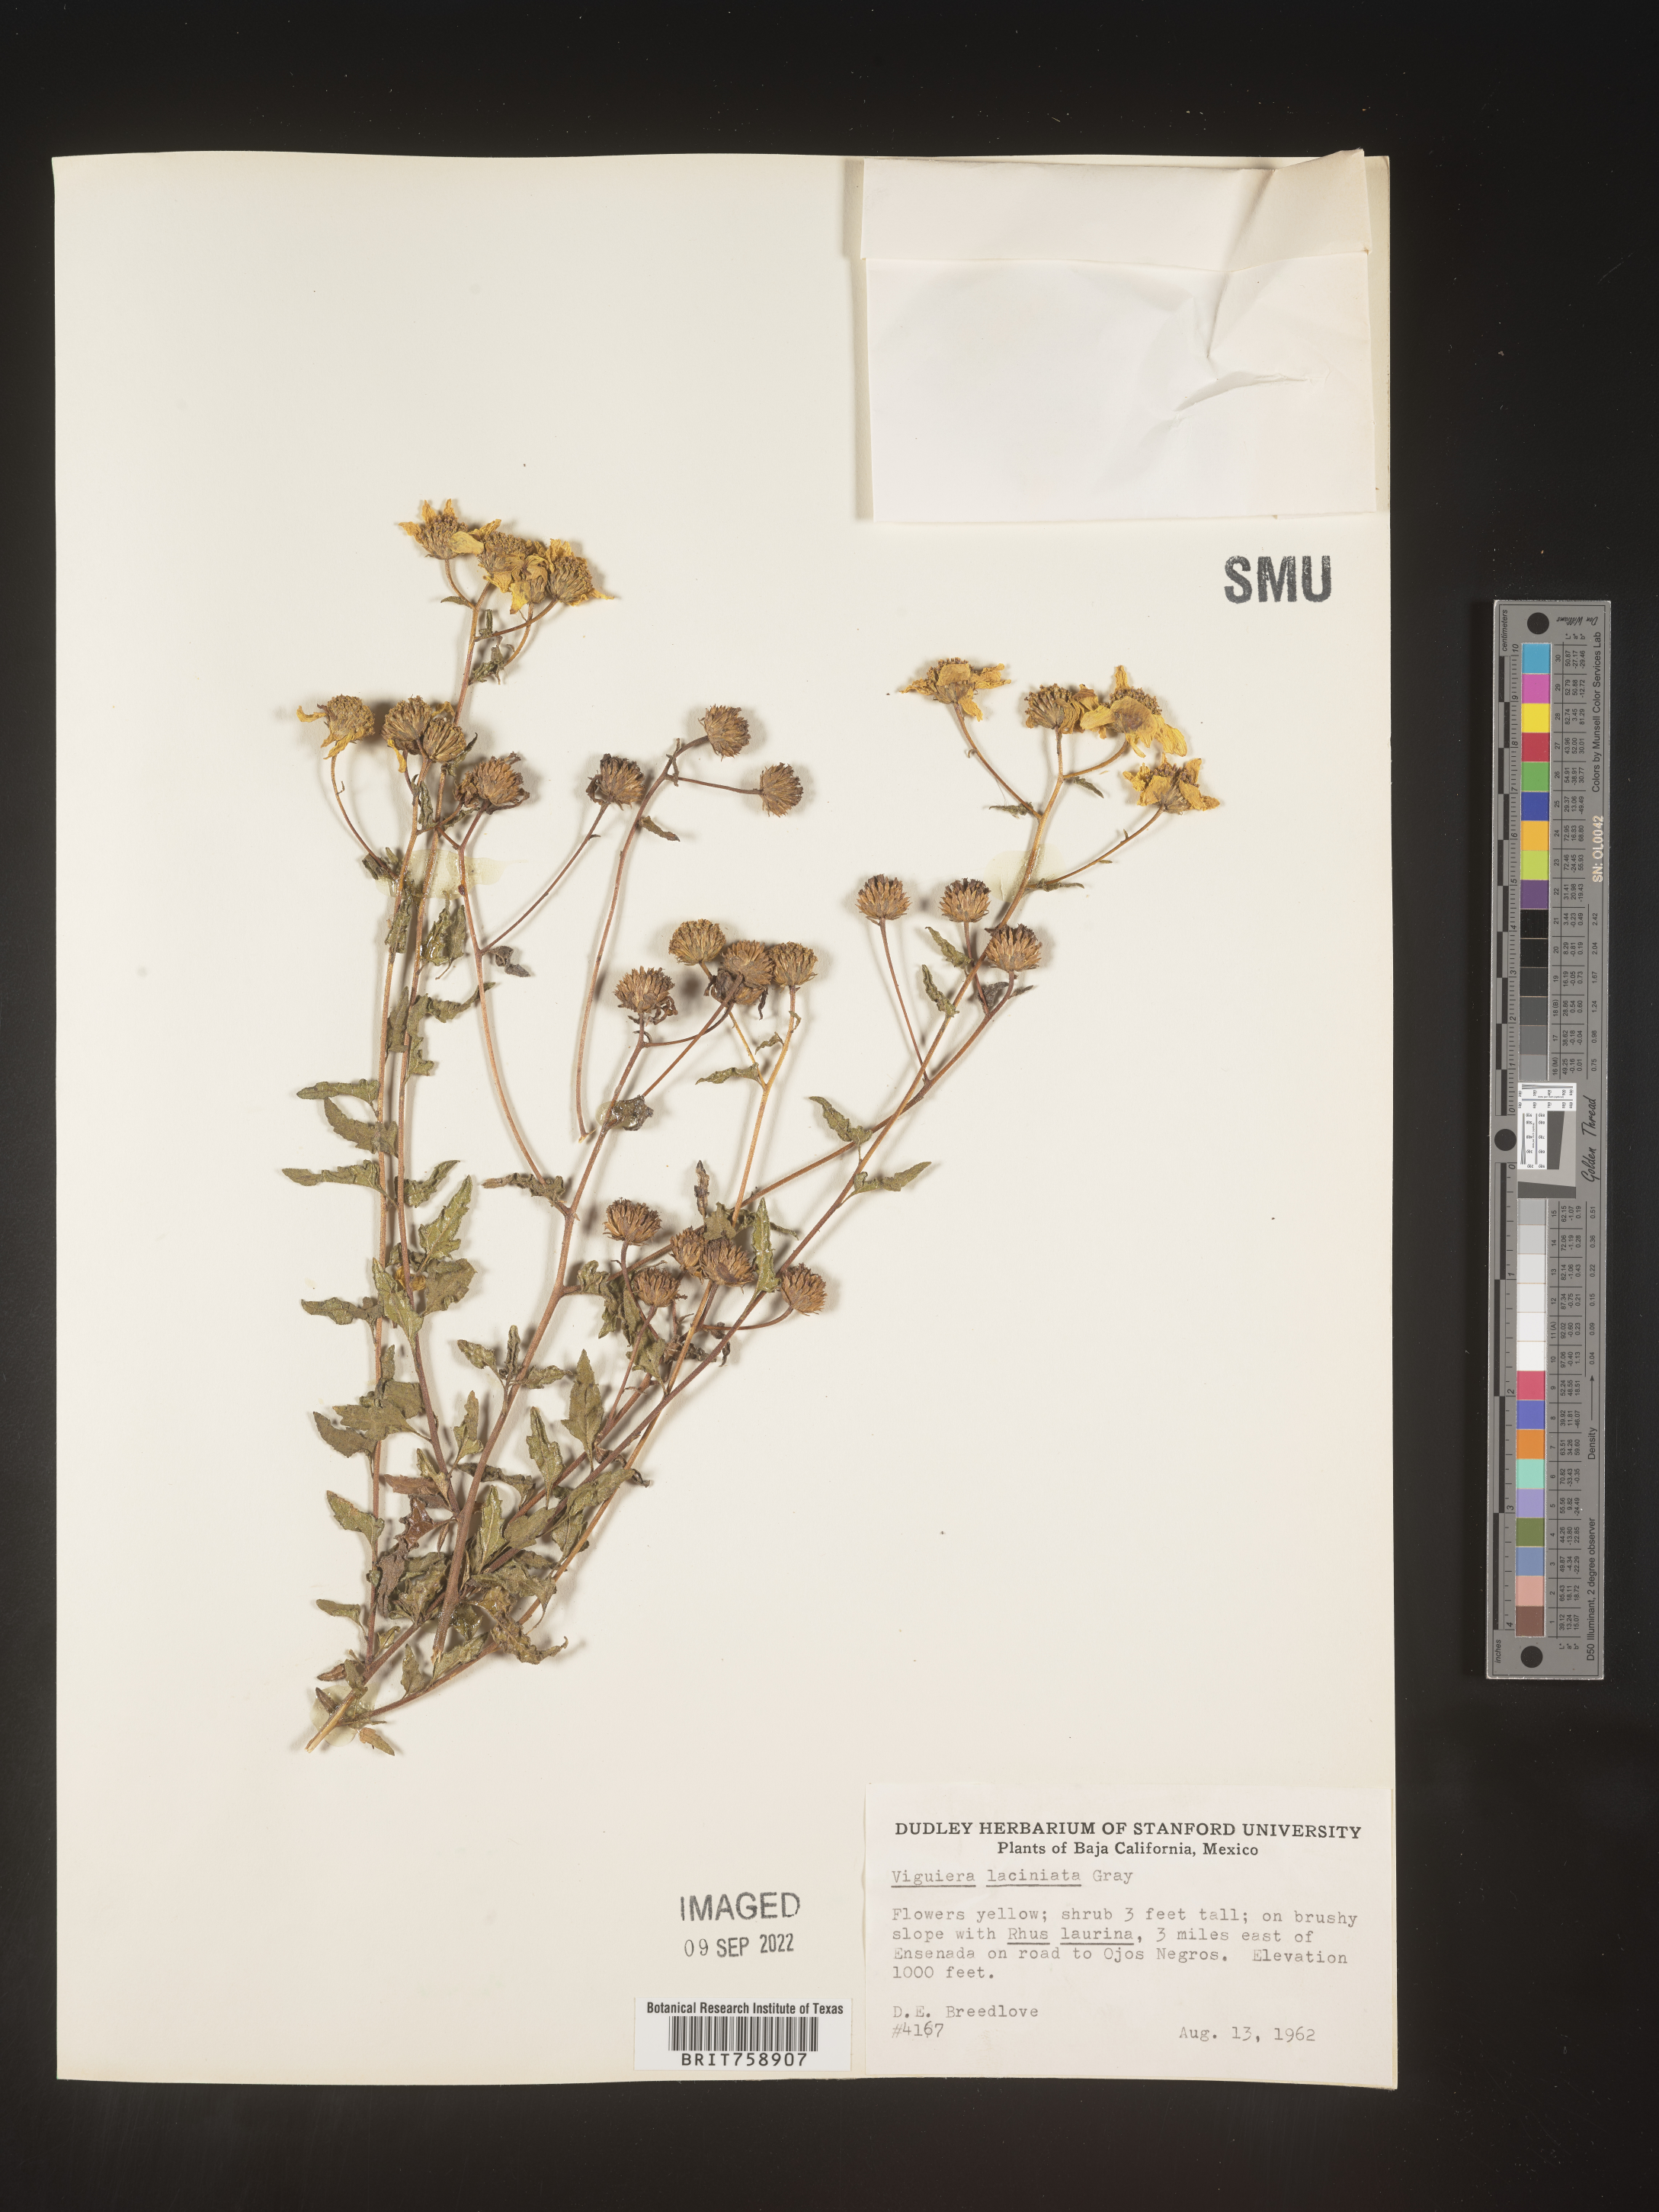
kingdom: Plantae
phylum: Tracheophyta
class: Magnoliopsida
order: Asterales
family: Asteraceae
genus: Viguiera
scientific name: Viguiera
